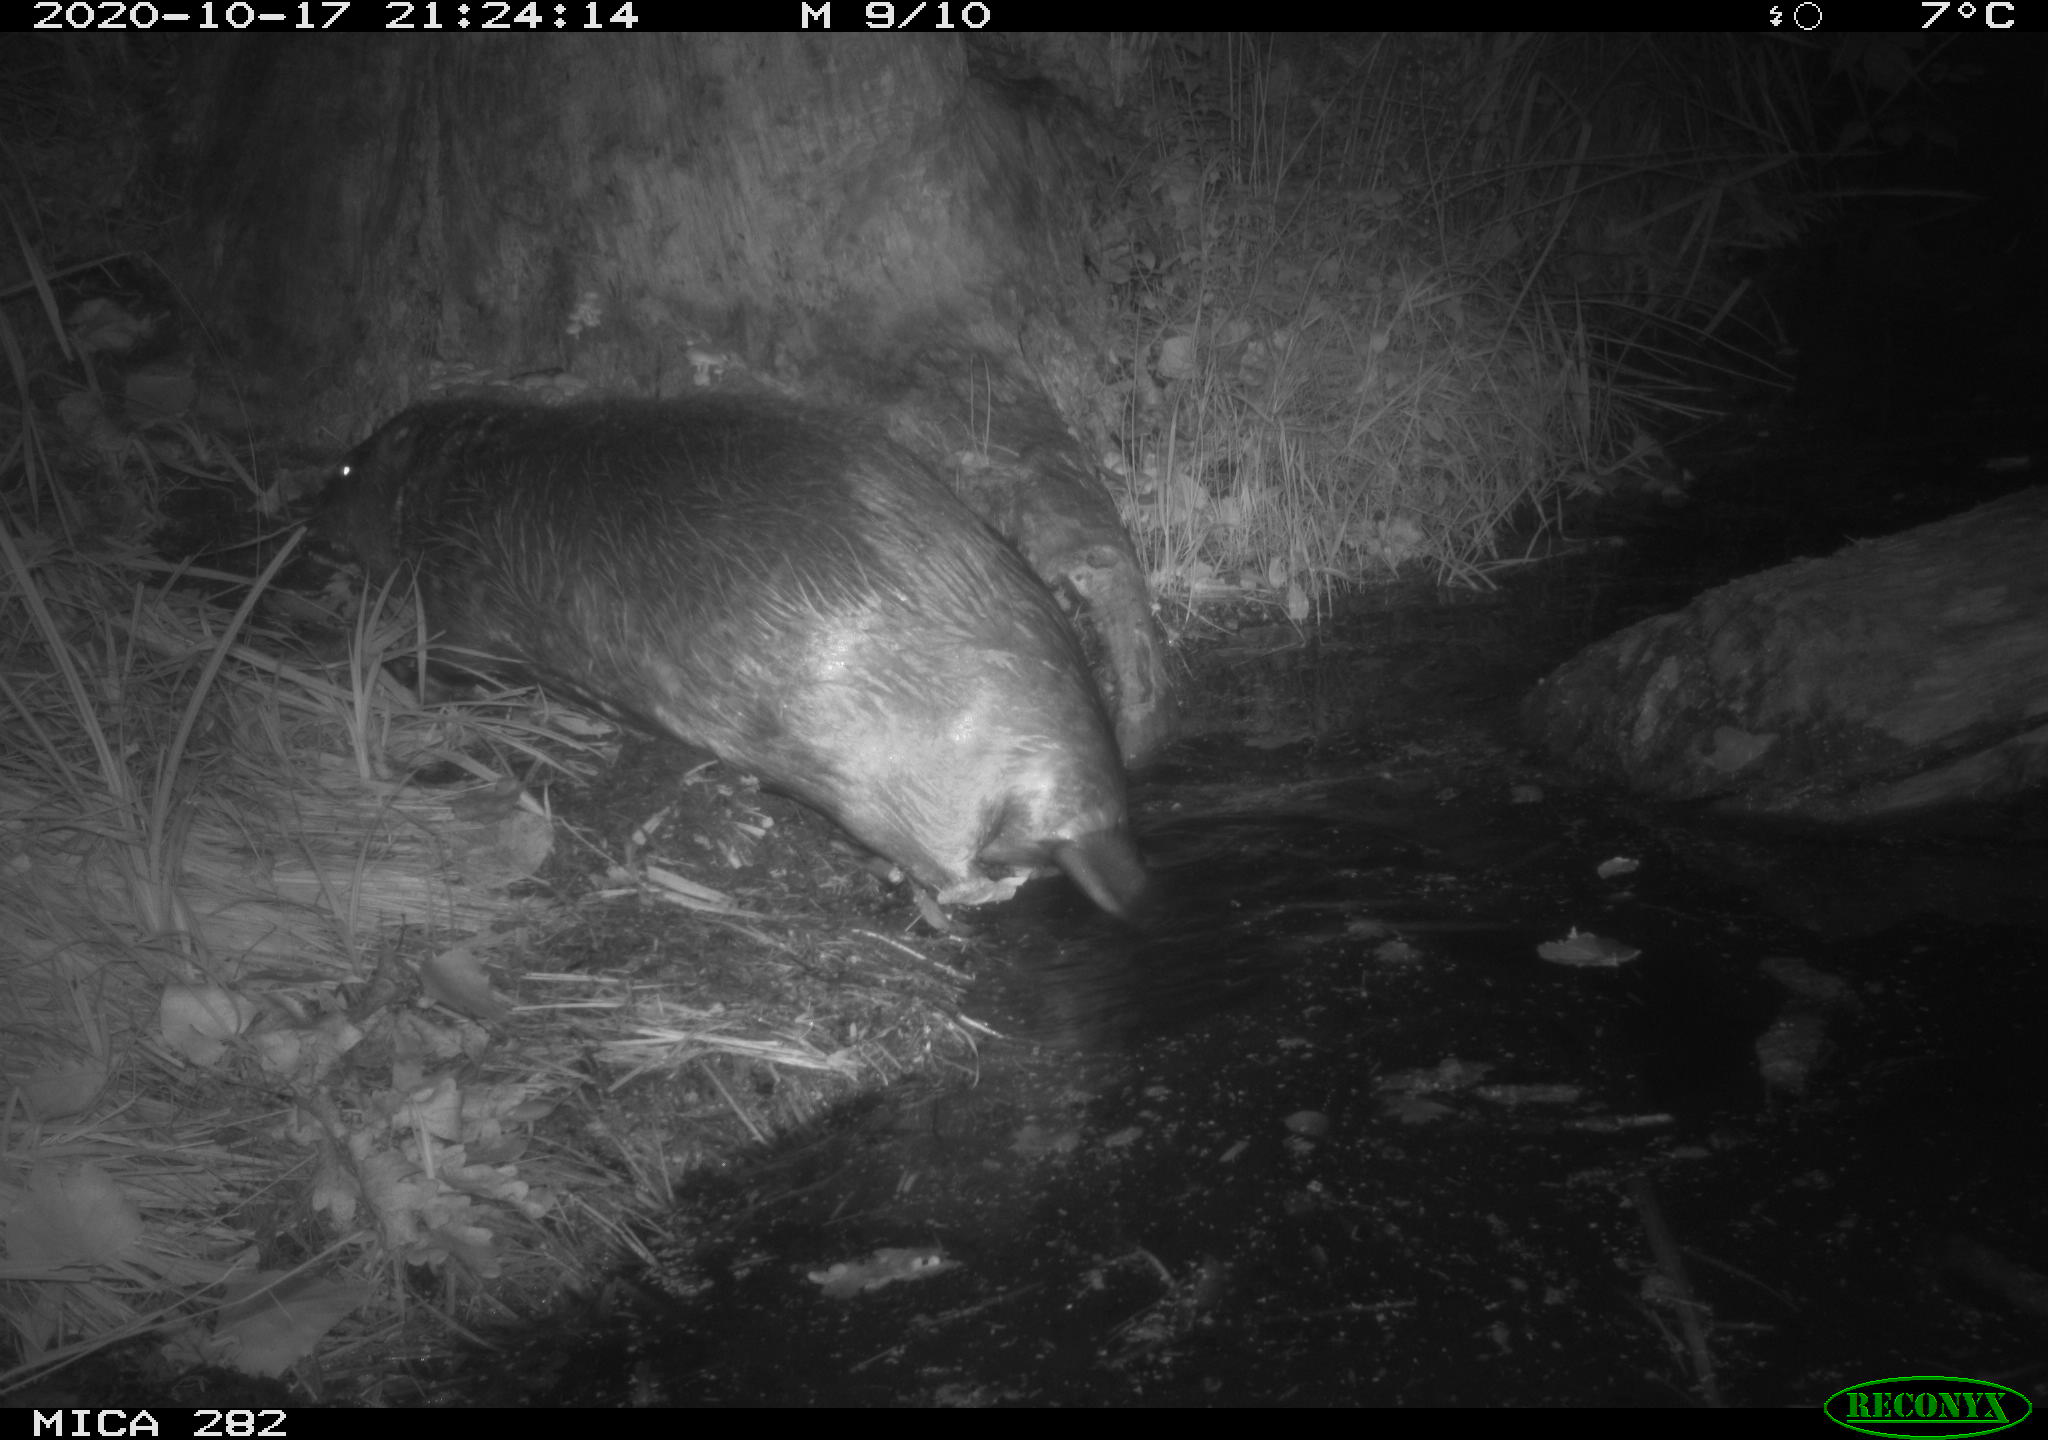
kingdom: Animalia
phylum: Chordata
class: Mammalia
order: Rodentia
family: Castoridae
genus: Castor
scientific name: Castor fiber
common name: Eurasian beaver
